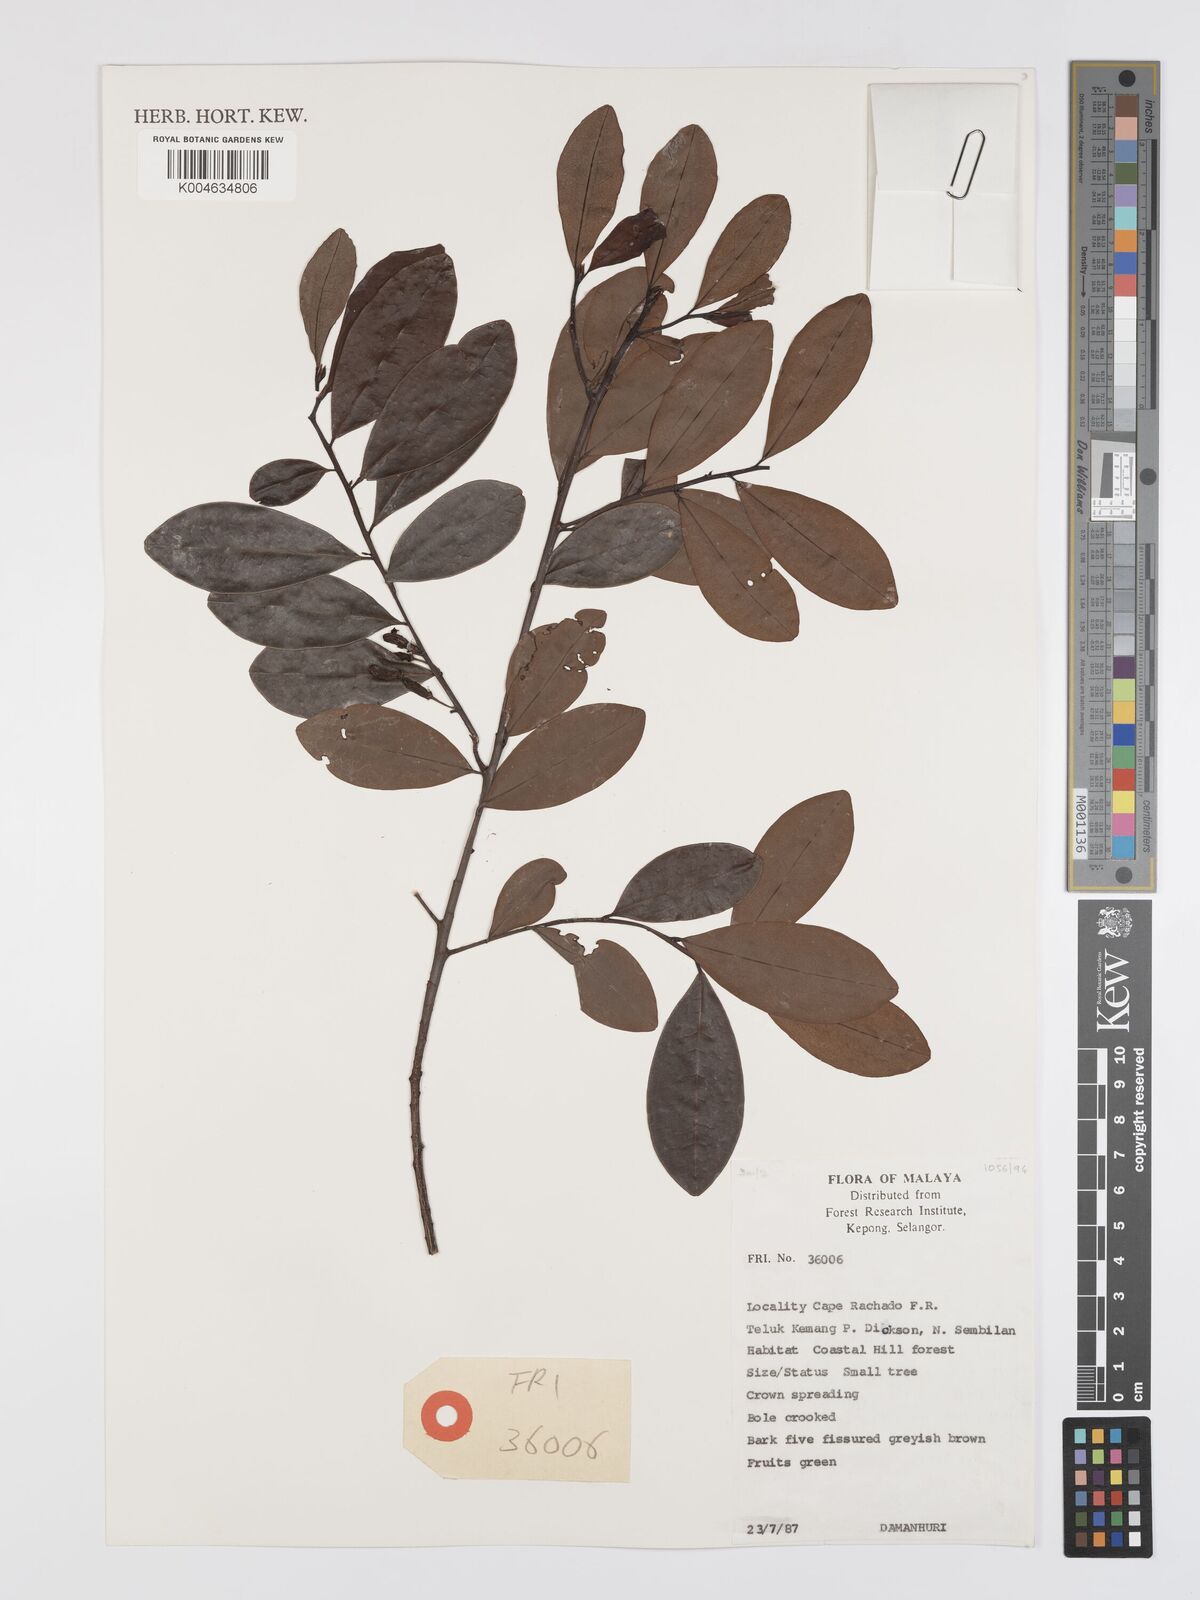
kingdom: Plantae
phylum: Tracheophyta
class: Magnoliopsida
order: Malpighiales
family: Erythroxylaceae
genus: Erythroxylum
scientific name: Erythroxylum cuneatum
